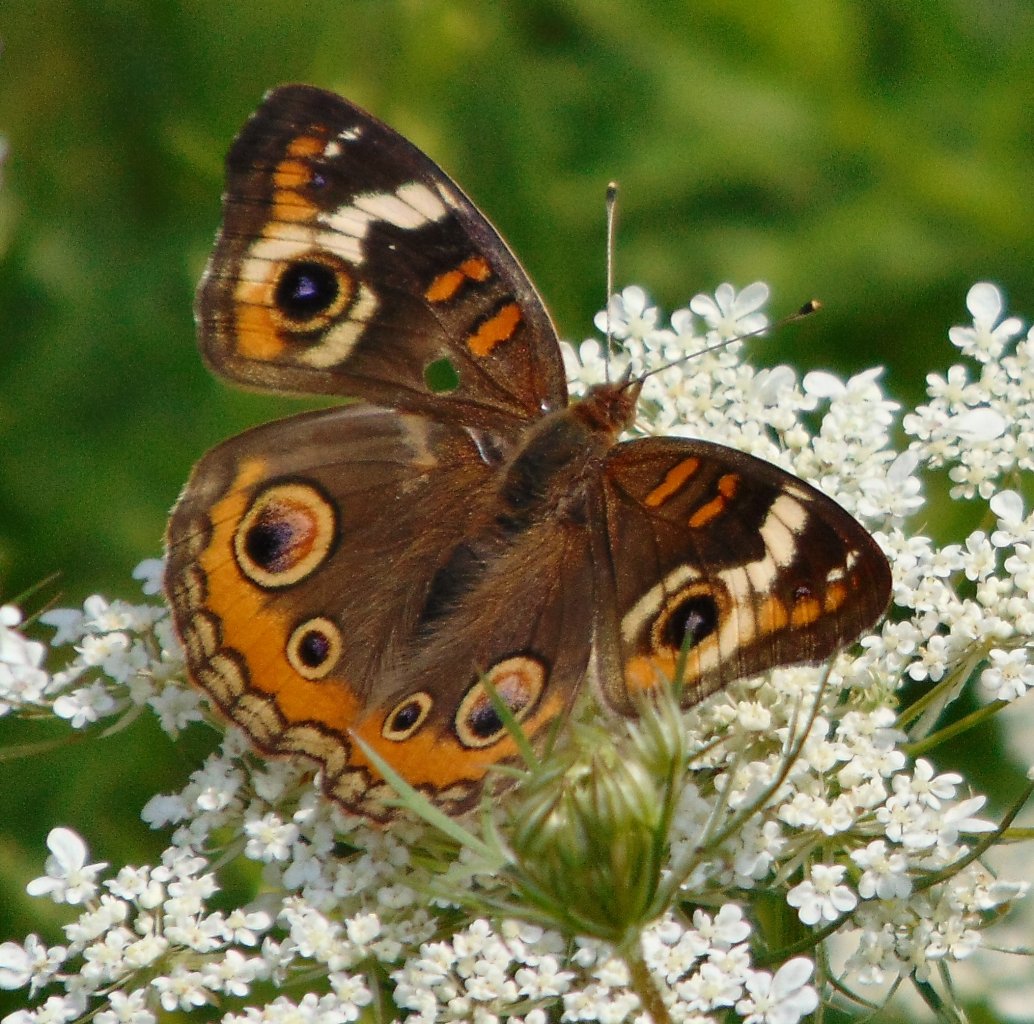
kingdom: Animalia
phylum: Arthropoda
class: Insecta
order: Lepidoptera
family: Nymphalidae
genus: Junonia
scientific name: Junonia coenia
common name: Common Buckeye
